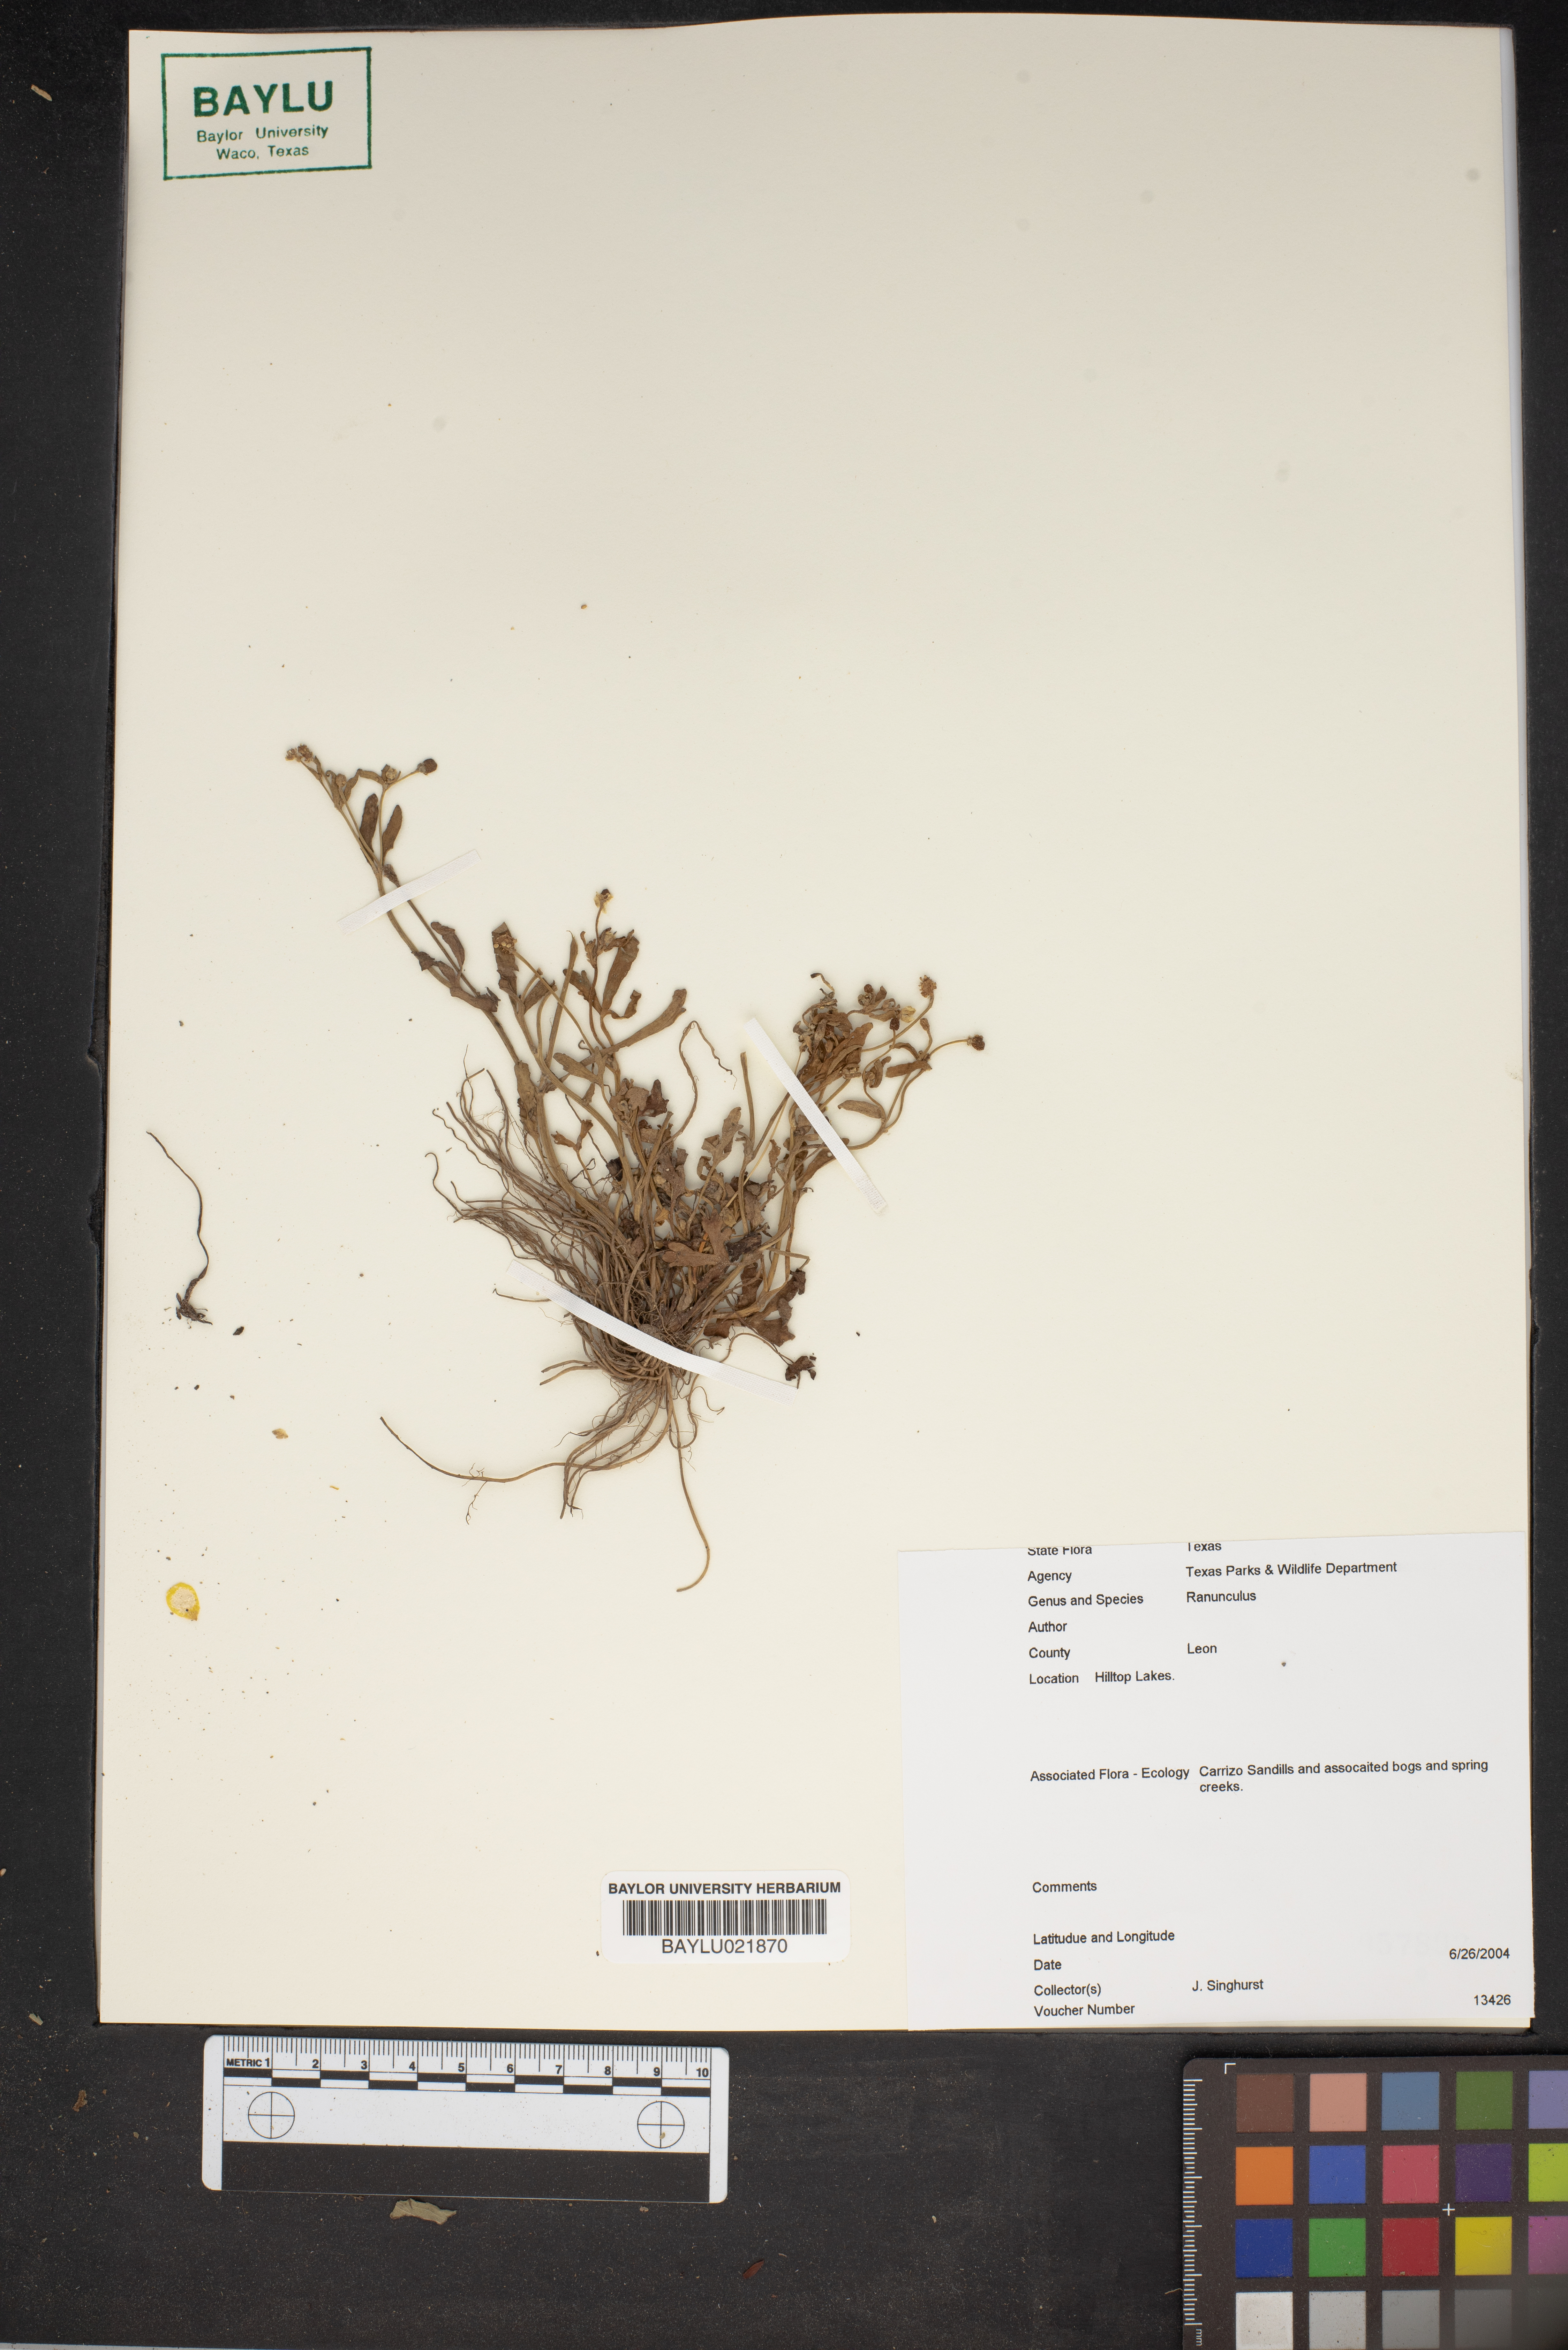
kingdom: Plantae
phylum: Tracheophyta
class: Magnoliopsida
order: Ranunculales
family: Ranunculaceae
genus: Ranunculus
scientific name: Ranunculus
